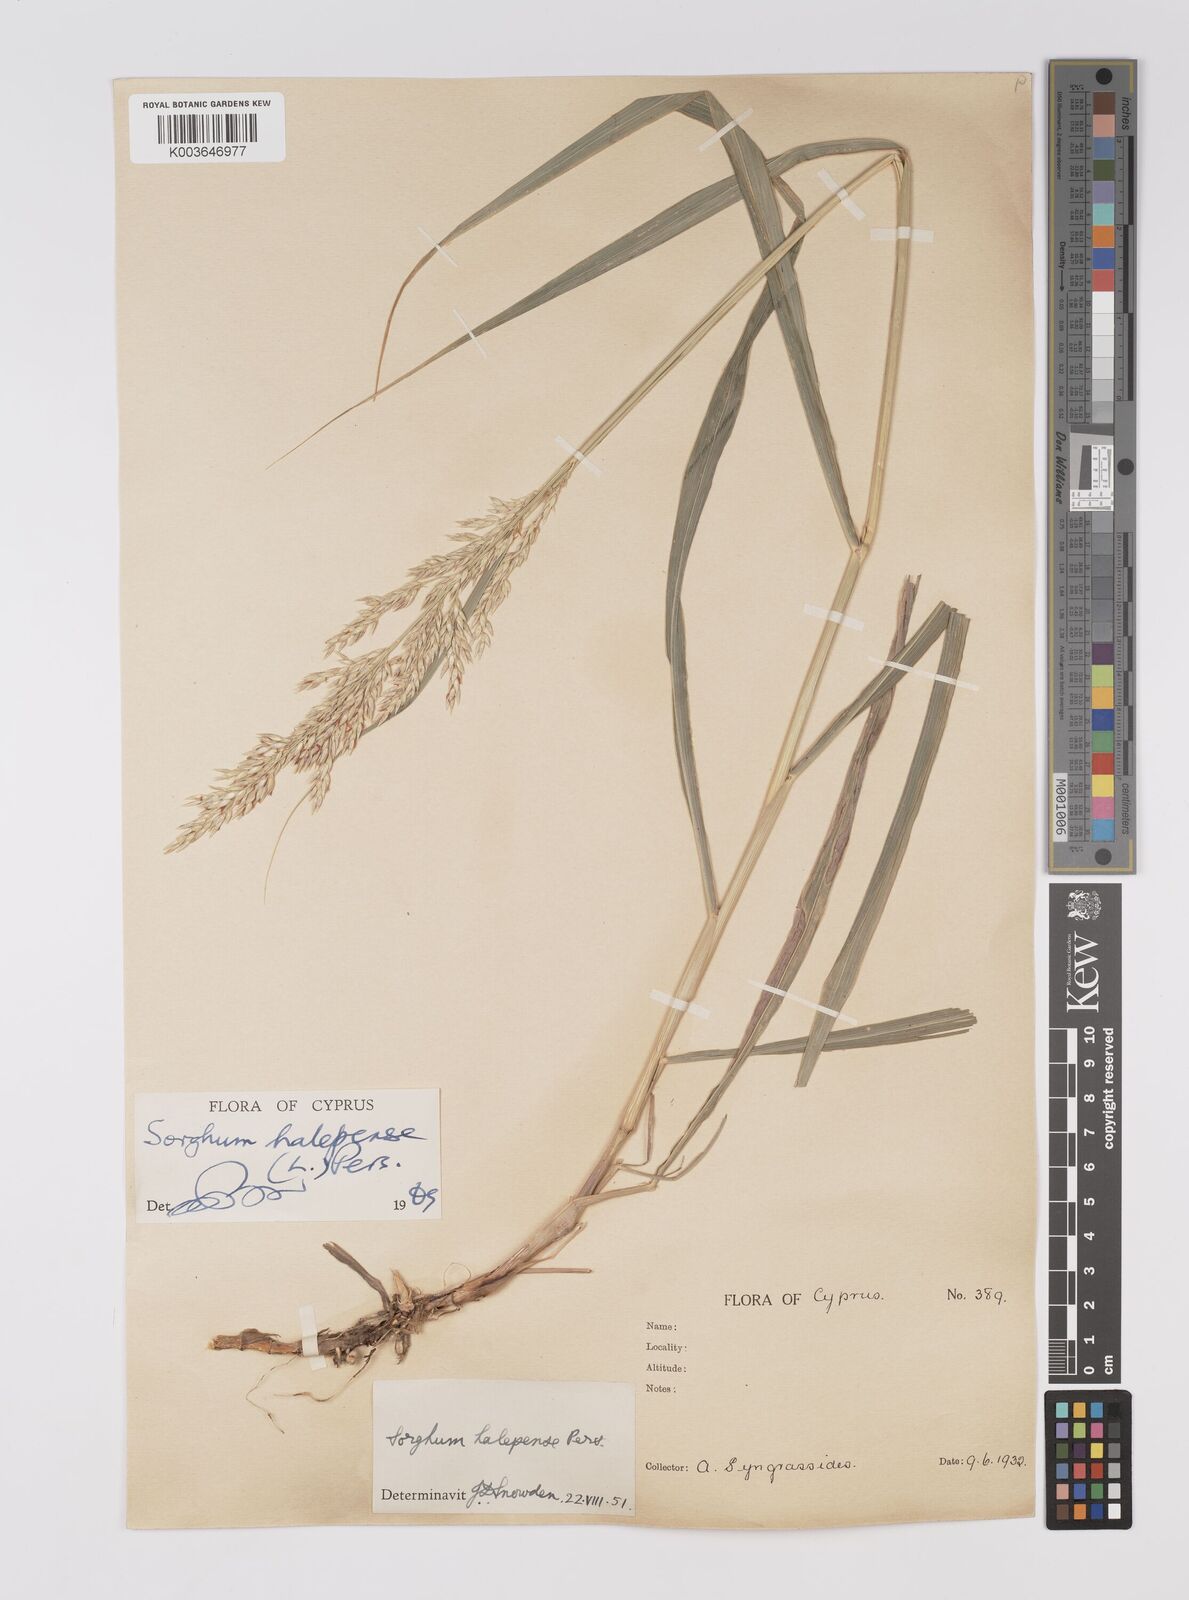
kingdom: Plantae
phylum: Tracheophyta
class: Liliopsida
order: Poales
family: Poaceae
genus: Sorghum
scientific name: Sorghum halepense
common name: Johnson-grass
